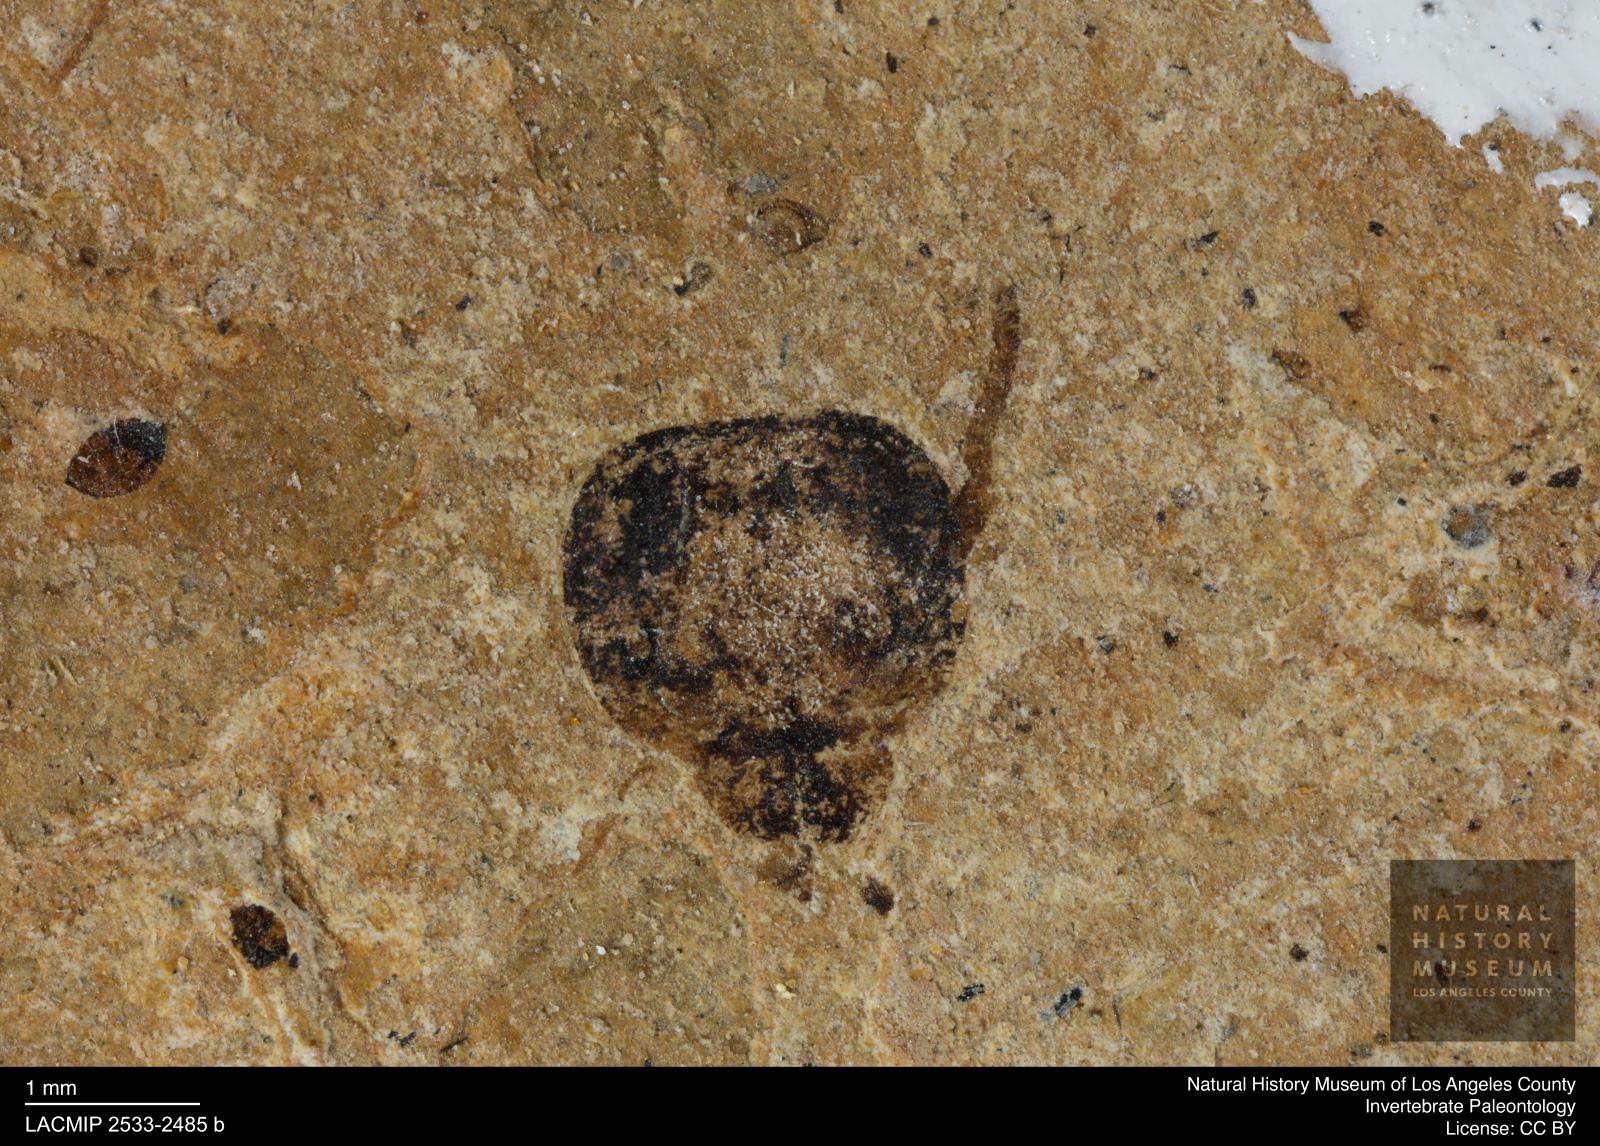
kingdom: Animalia
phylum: Arthropoda
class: Insecta
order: Hymenoptera
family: Formicidae
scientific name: Formicidae
